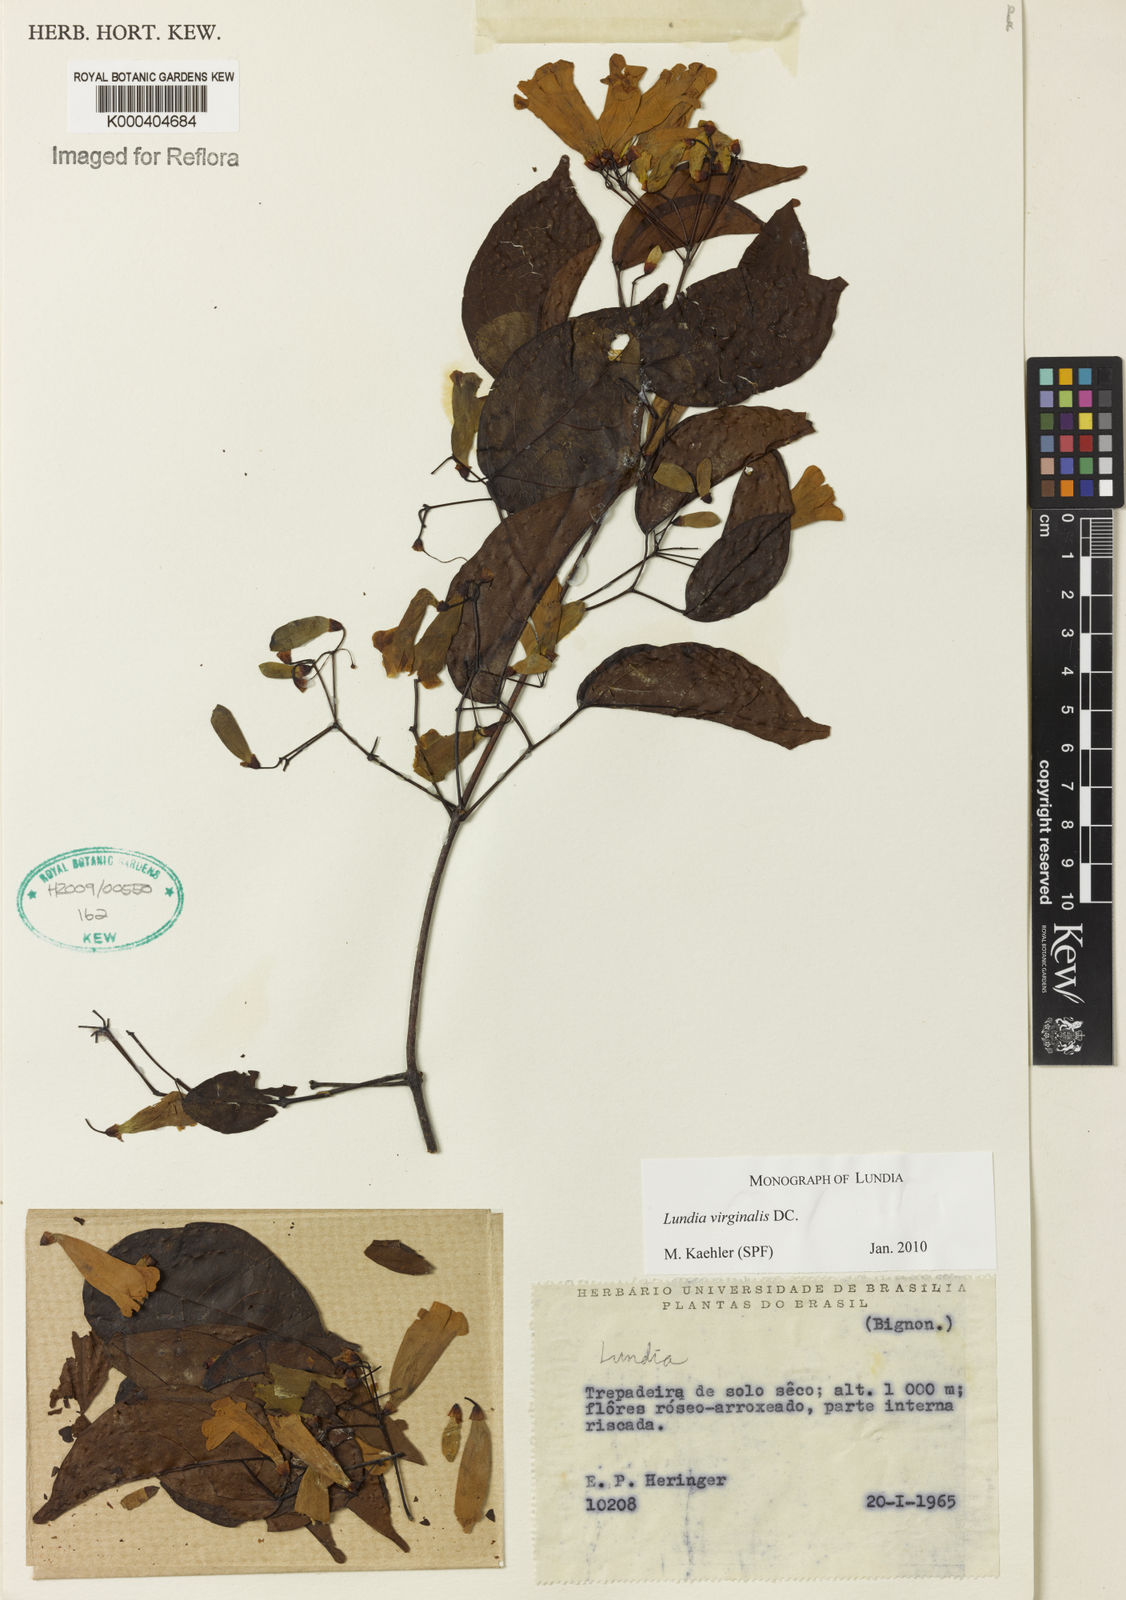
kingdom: Plantae
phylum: Tracheophyta
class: Magnoliopsida
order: Lamiales
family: Bignoniaceae
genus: Lundia
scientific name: Lundia virginalis
